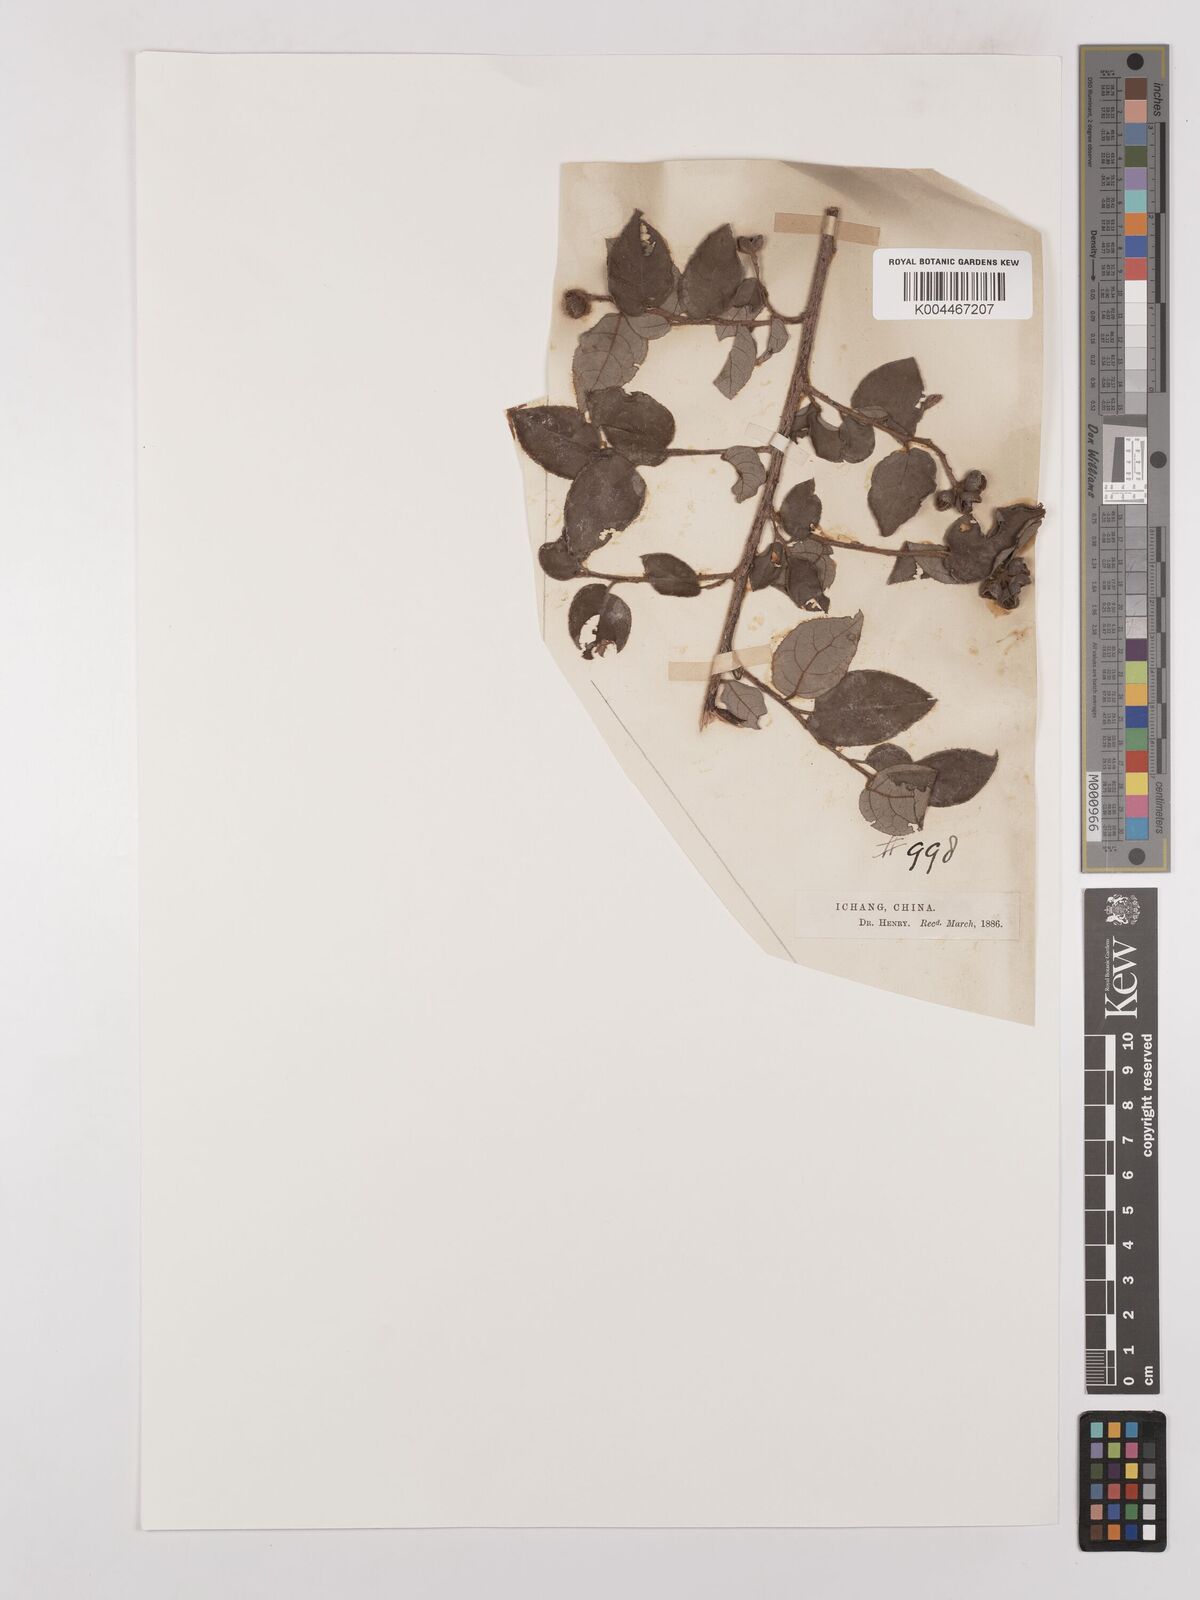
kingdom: Plantae
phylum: Tracheophyta
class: Magnoliopsida
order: Saxifragales
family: Hamamelidaceae
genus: Loropetalum
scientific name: Loropetalum
